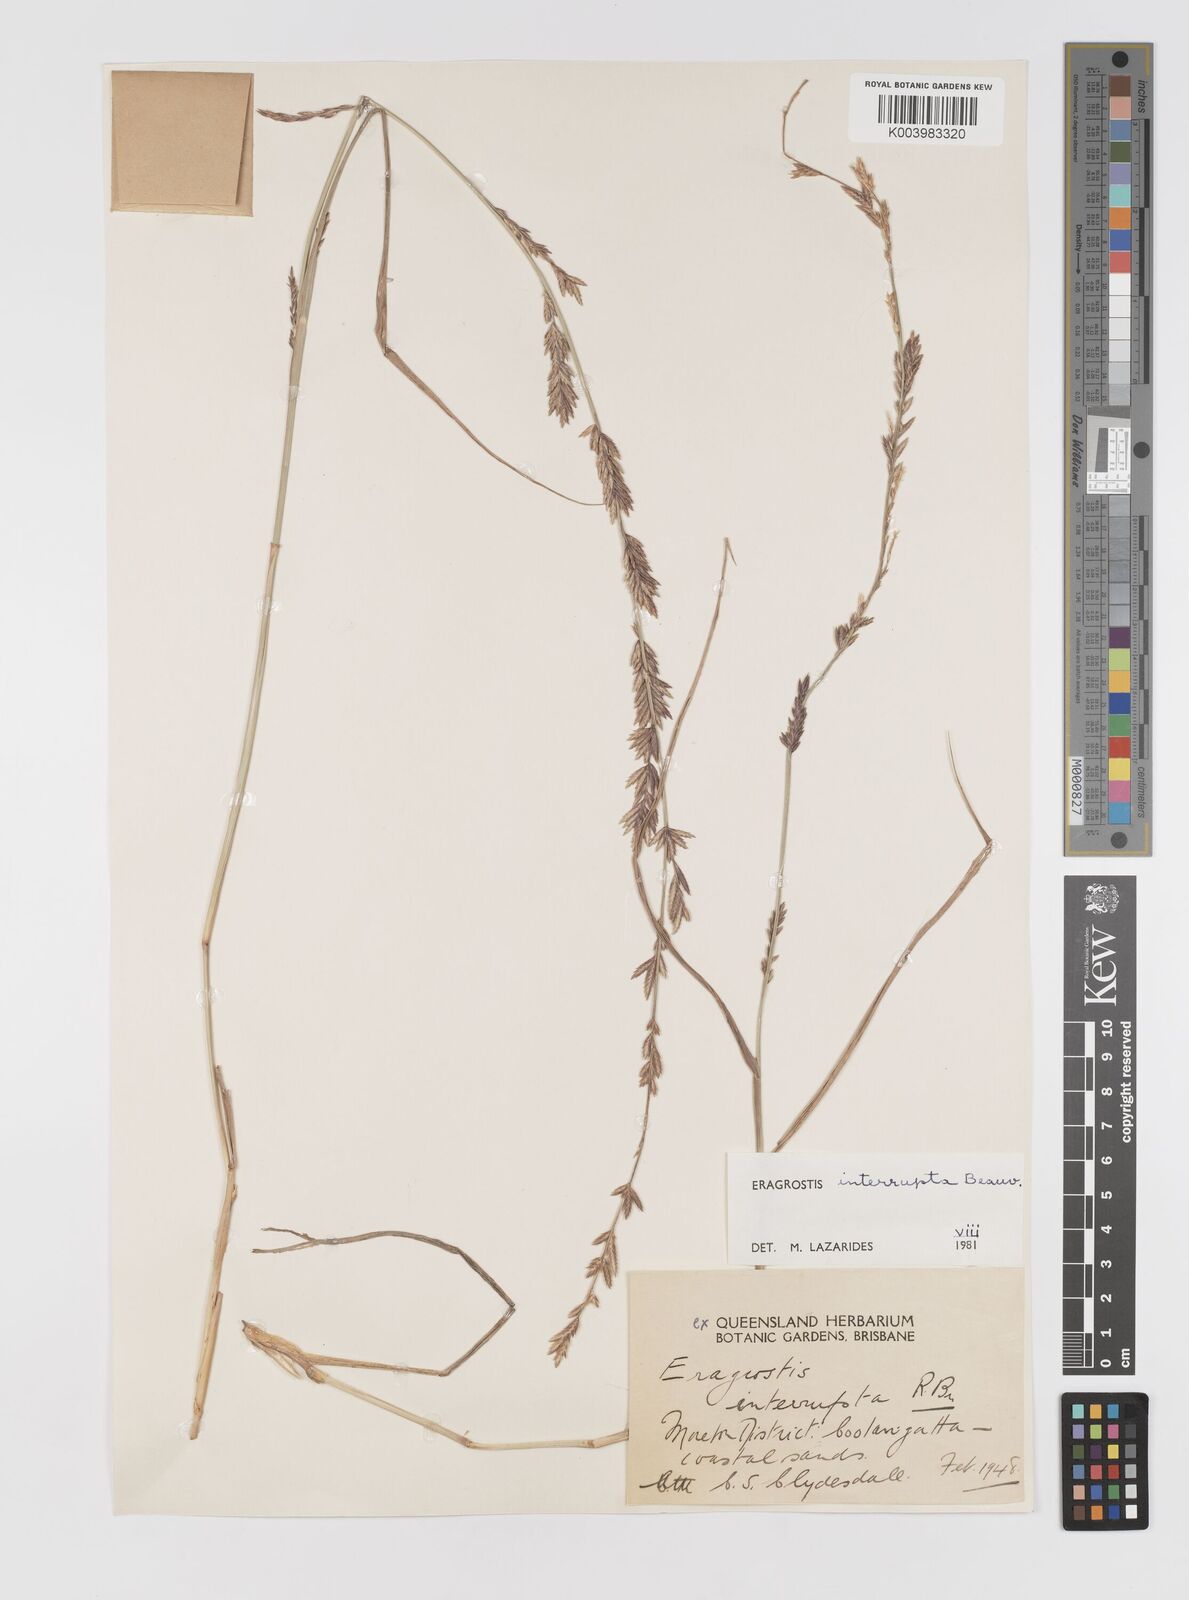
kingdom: Plantae
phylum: Tracheophyta
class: Liliopsida
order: Poales
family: Poaceae
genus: Eragrostis
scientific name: Eragrostis interrupta
